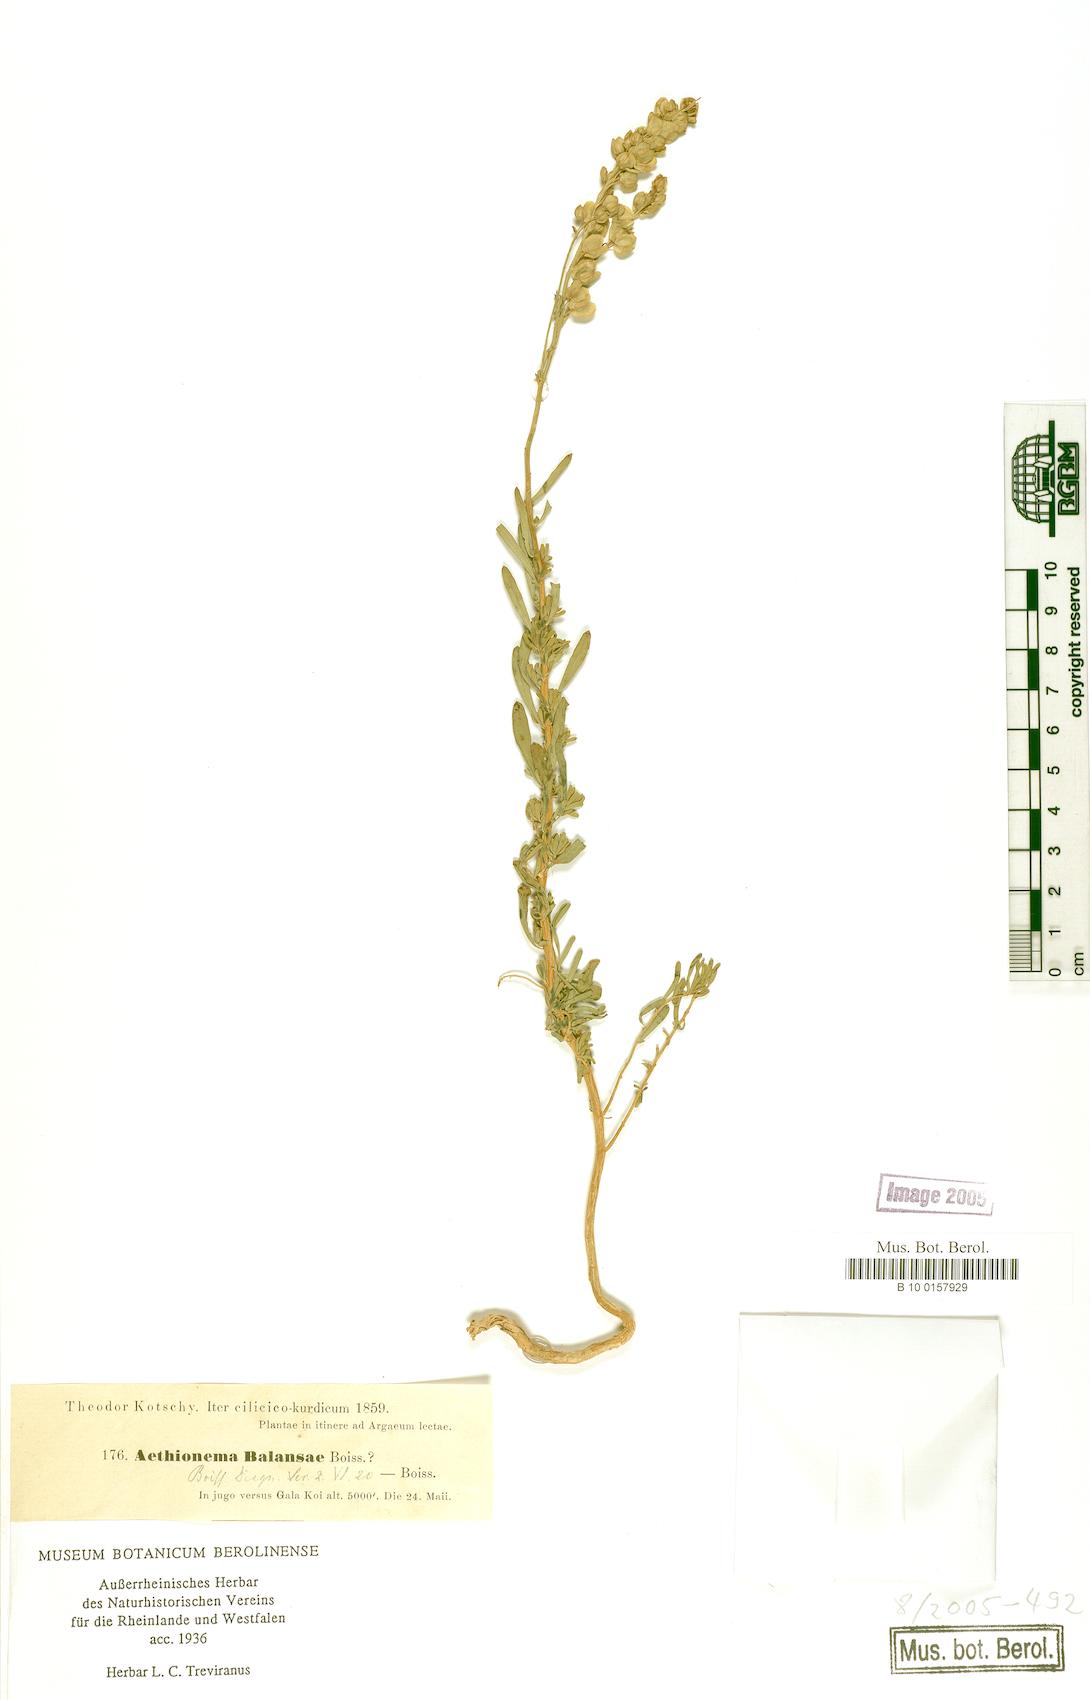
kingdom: Plantae
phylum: Tracheophyta
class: Magnoliopsida
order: Brassicales
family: Brassicaceae
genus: Aethionema
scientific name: Aethionema glaucescens
